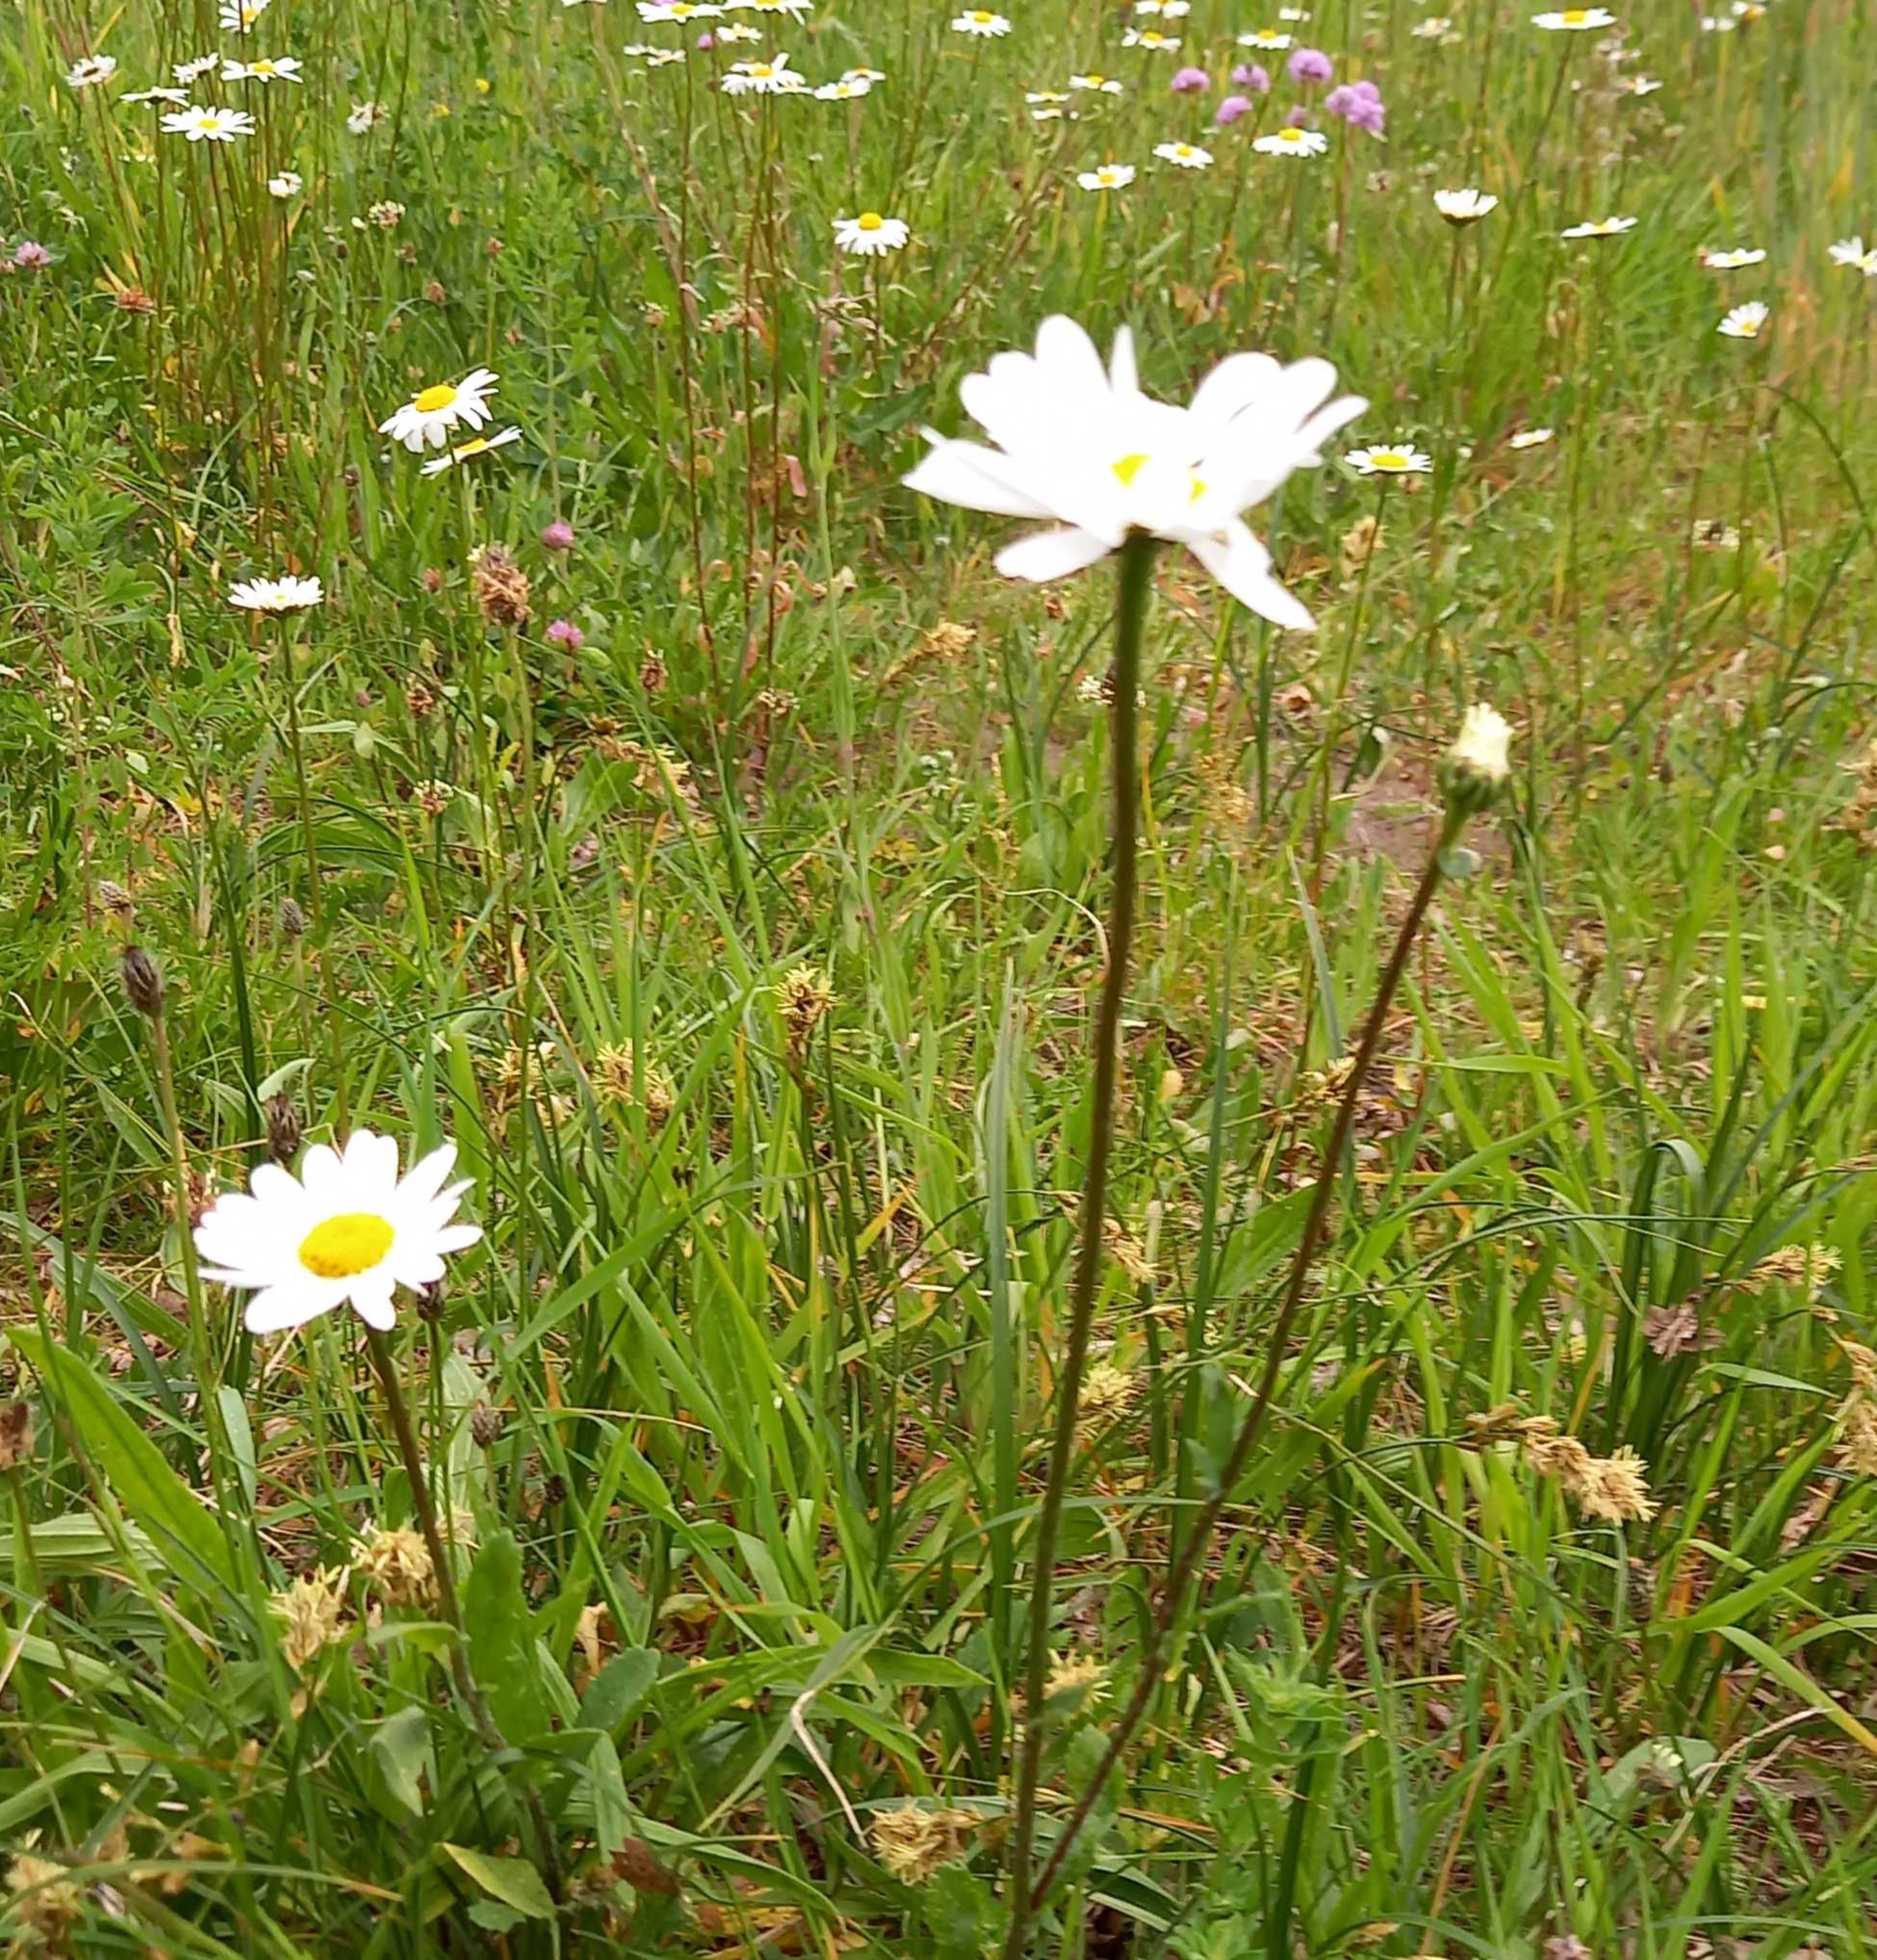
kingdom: Plantae
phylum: Tracheophyta
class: Magnoliopsida
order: Asterales
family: Asteraceae
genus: Leucanthemum
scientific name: Leucanthemum vulgare
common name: Hvid okseøje
